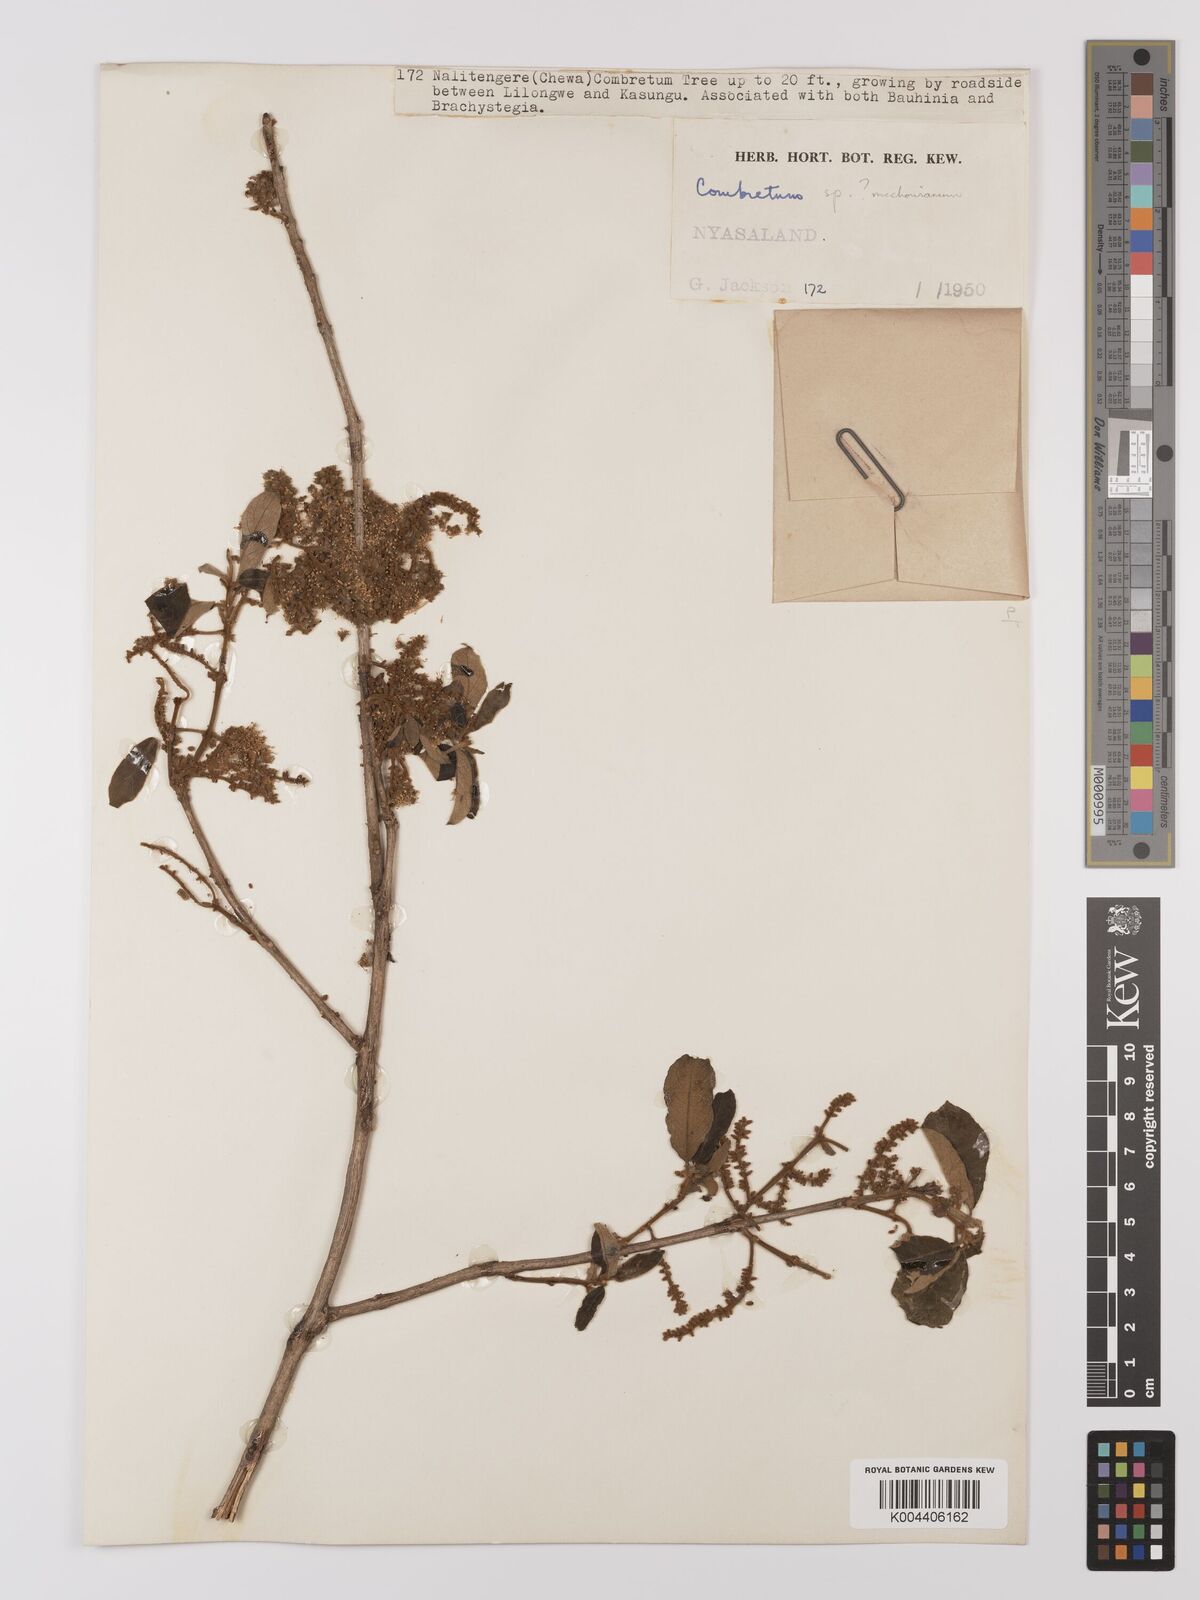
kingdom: Plantae
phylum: Tracheophyta
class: Magnoliopsida
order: Myrtales
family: Combretaceae
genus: Combretum
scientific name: Combretum
